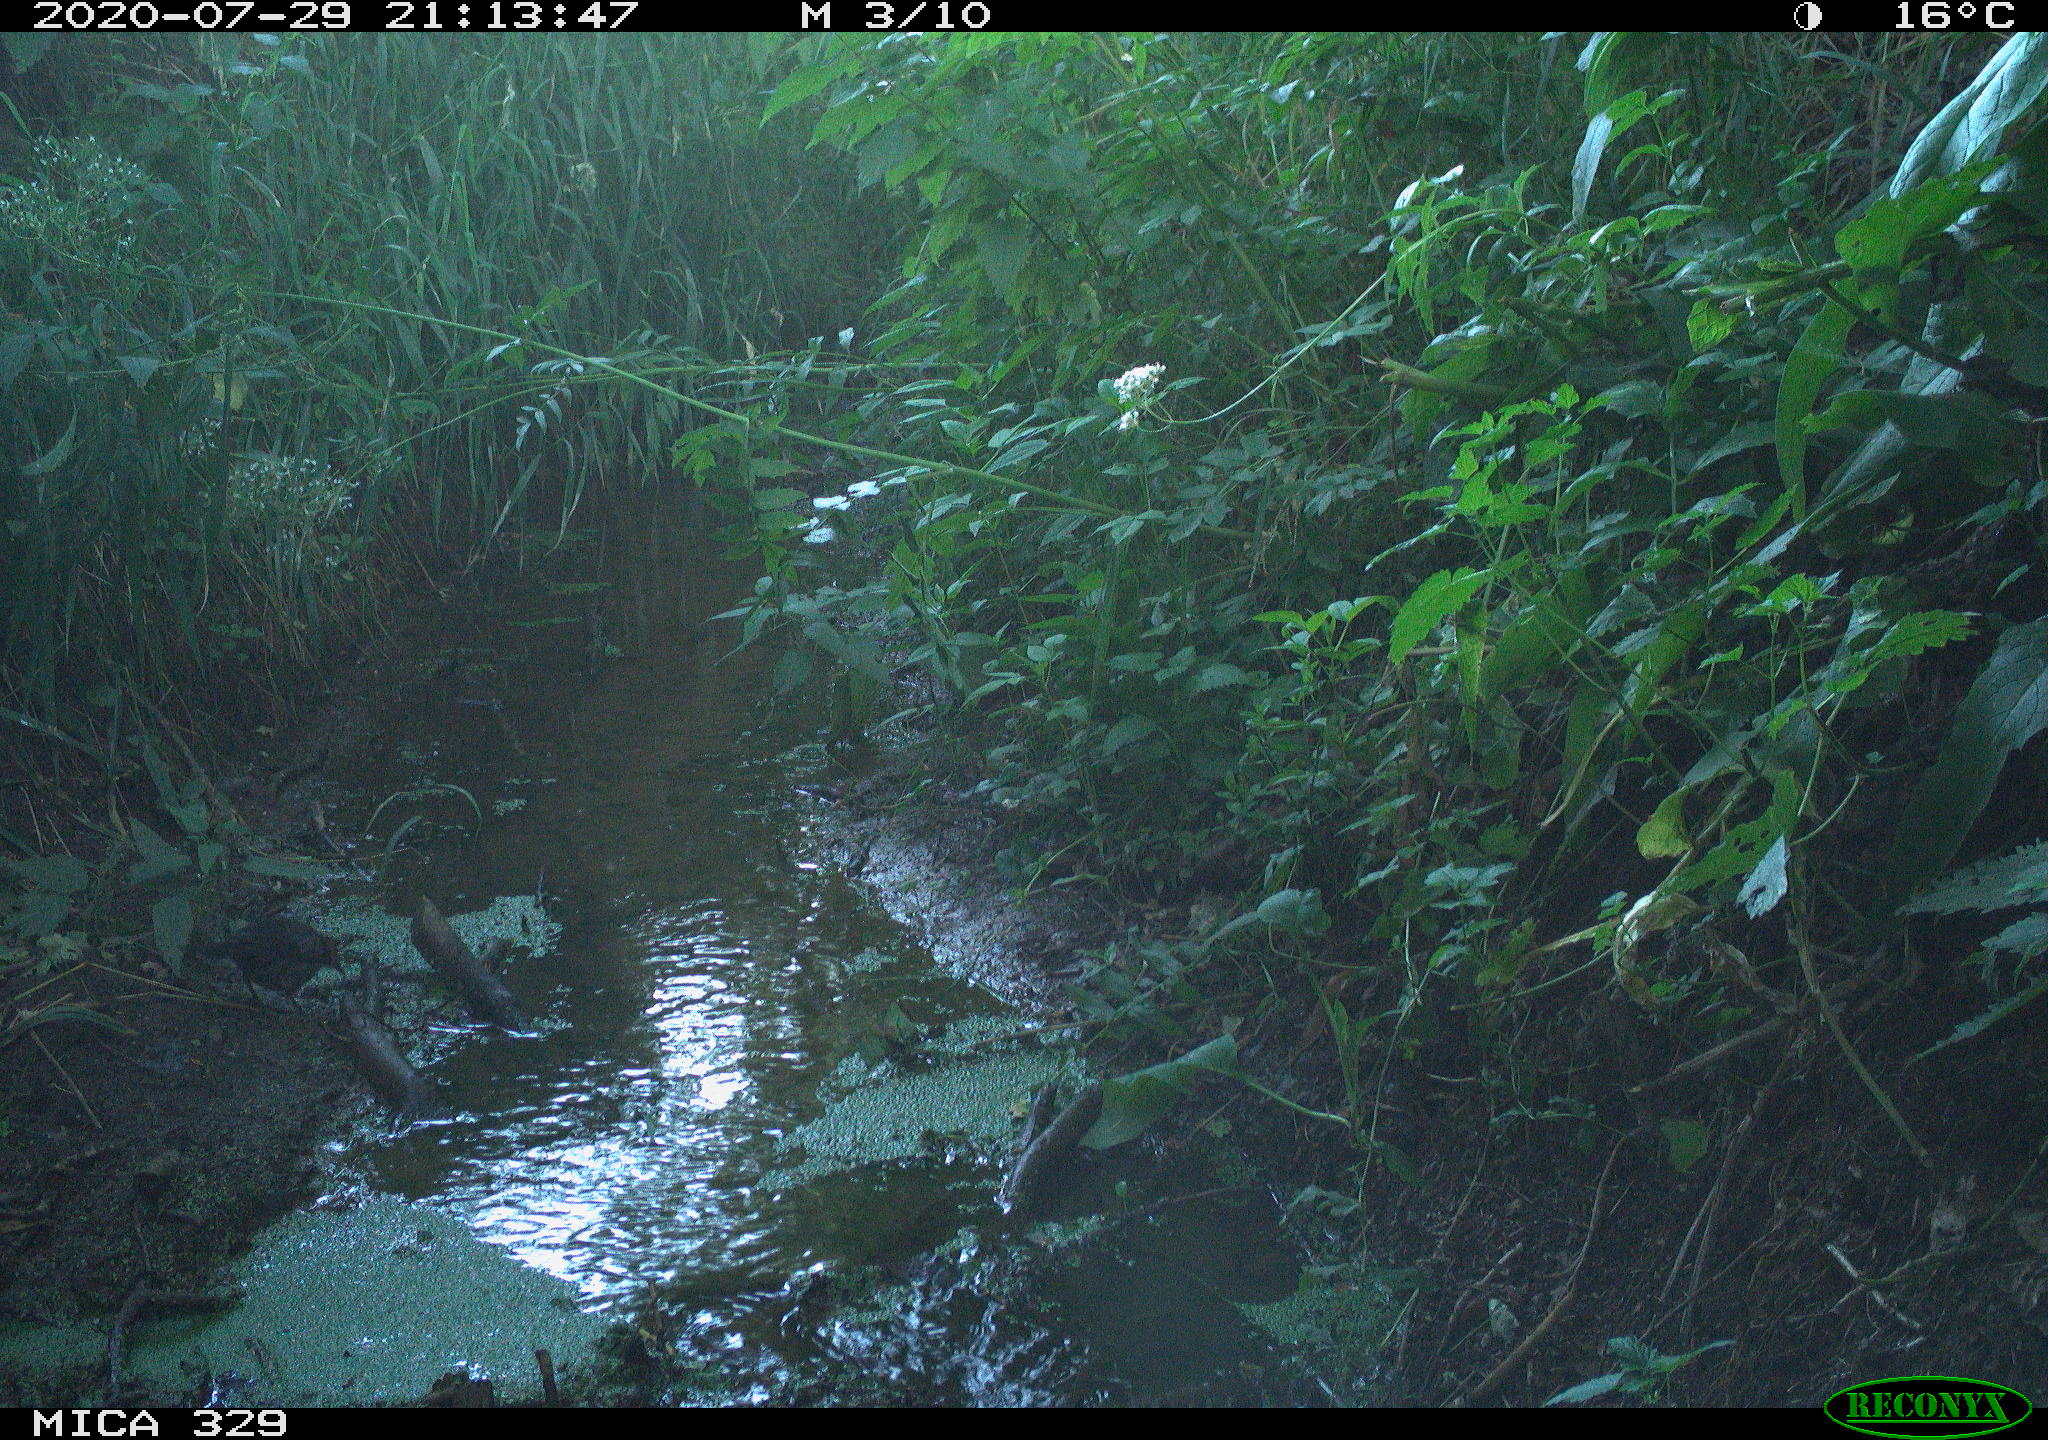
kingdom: Animalia
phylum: Chordata
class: Aves
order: Passeriformes
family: Turdidae
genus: Turdus
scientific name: Turdus philomelos
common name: Song thrush
